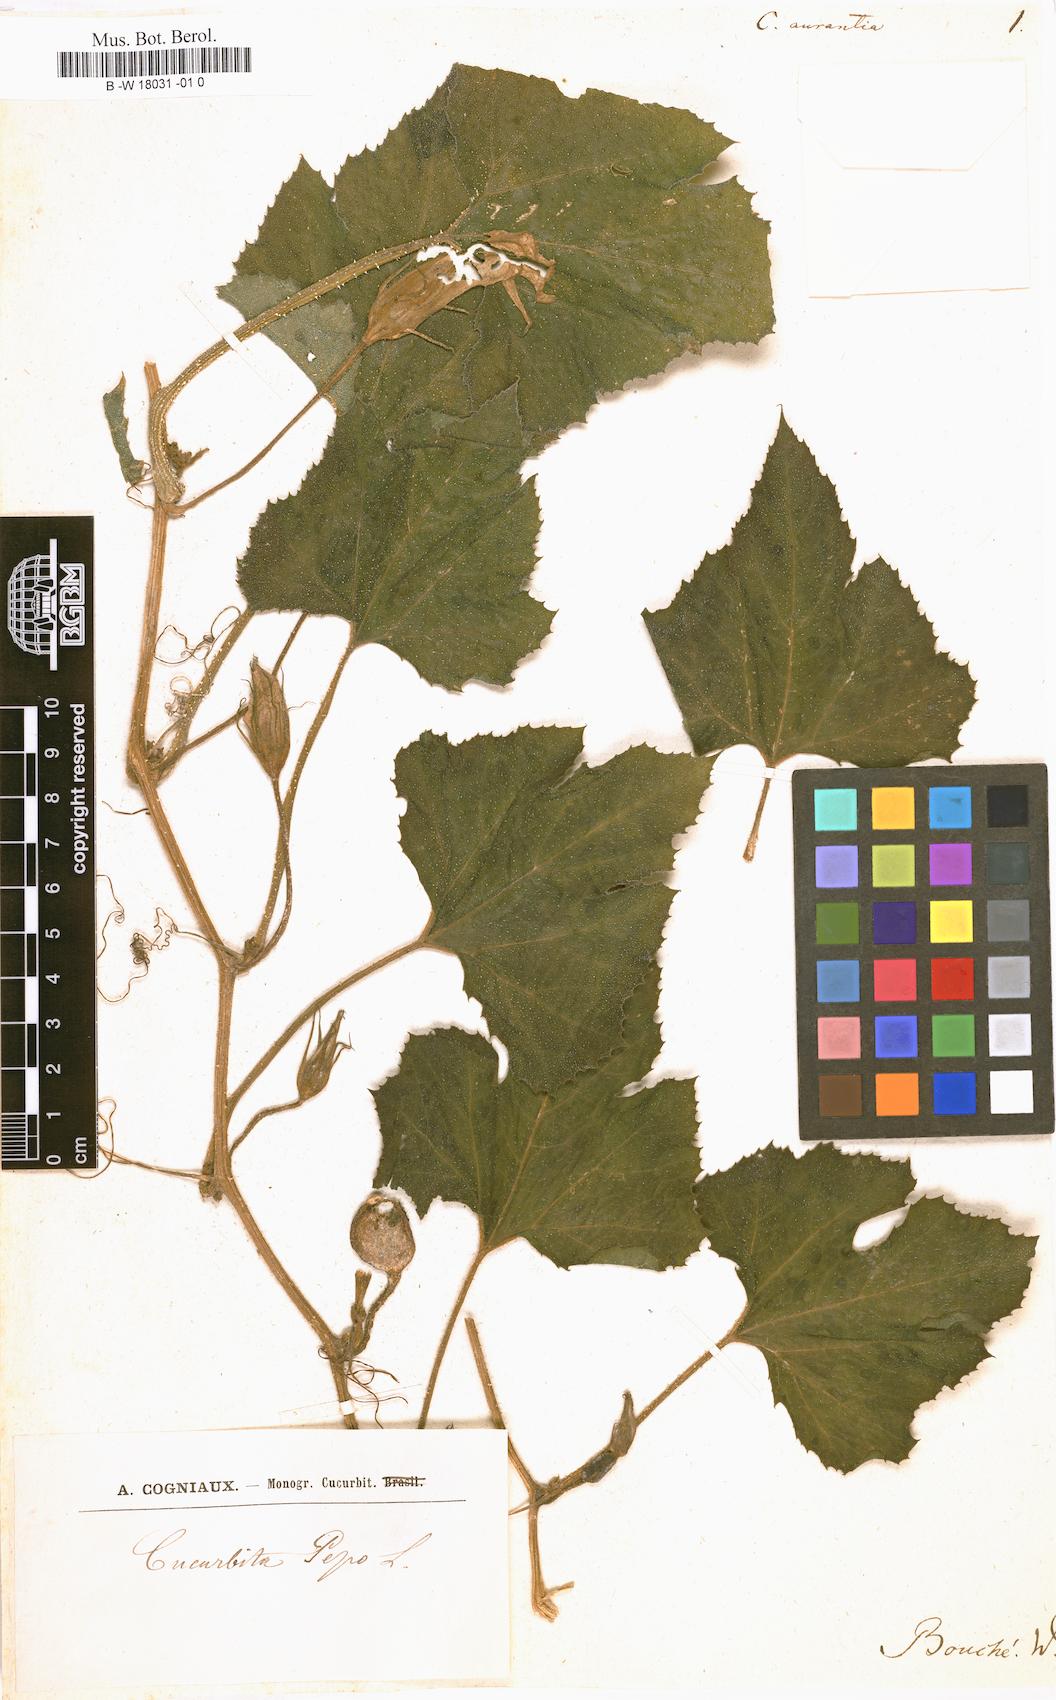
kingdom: Plantae
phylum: Tracheophyta
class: Magnoliopsida
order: Cucurbitales
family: Cucurbitaceae
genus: Cucurbita
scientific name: Cucurbita pepo
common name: Marrow
